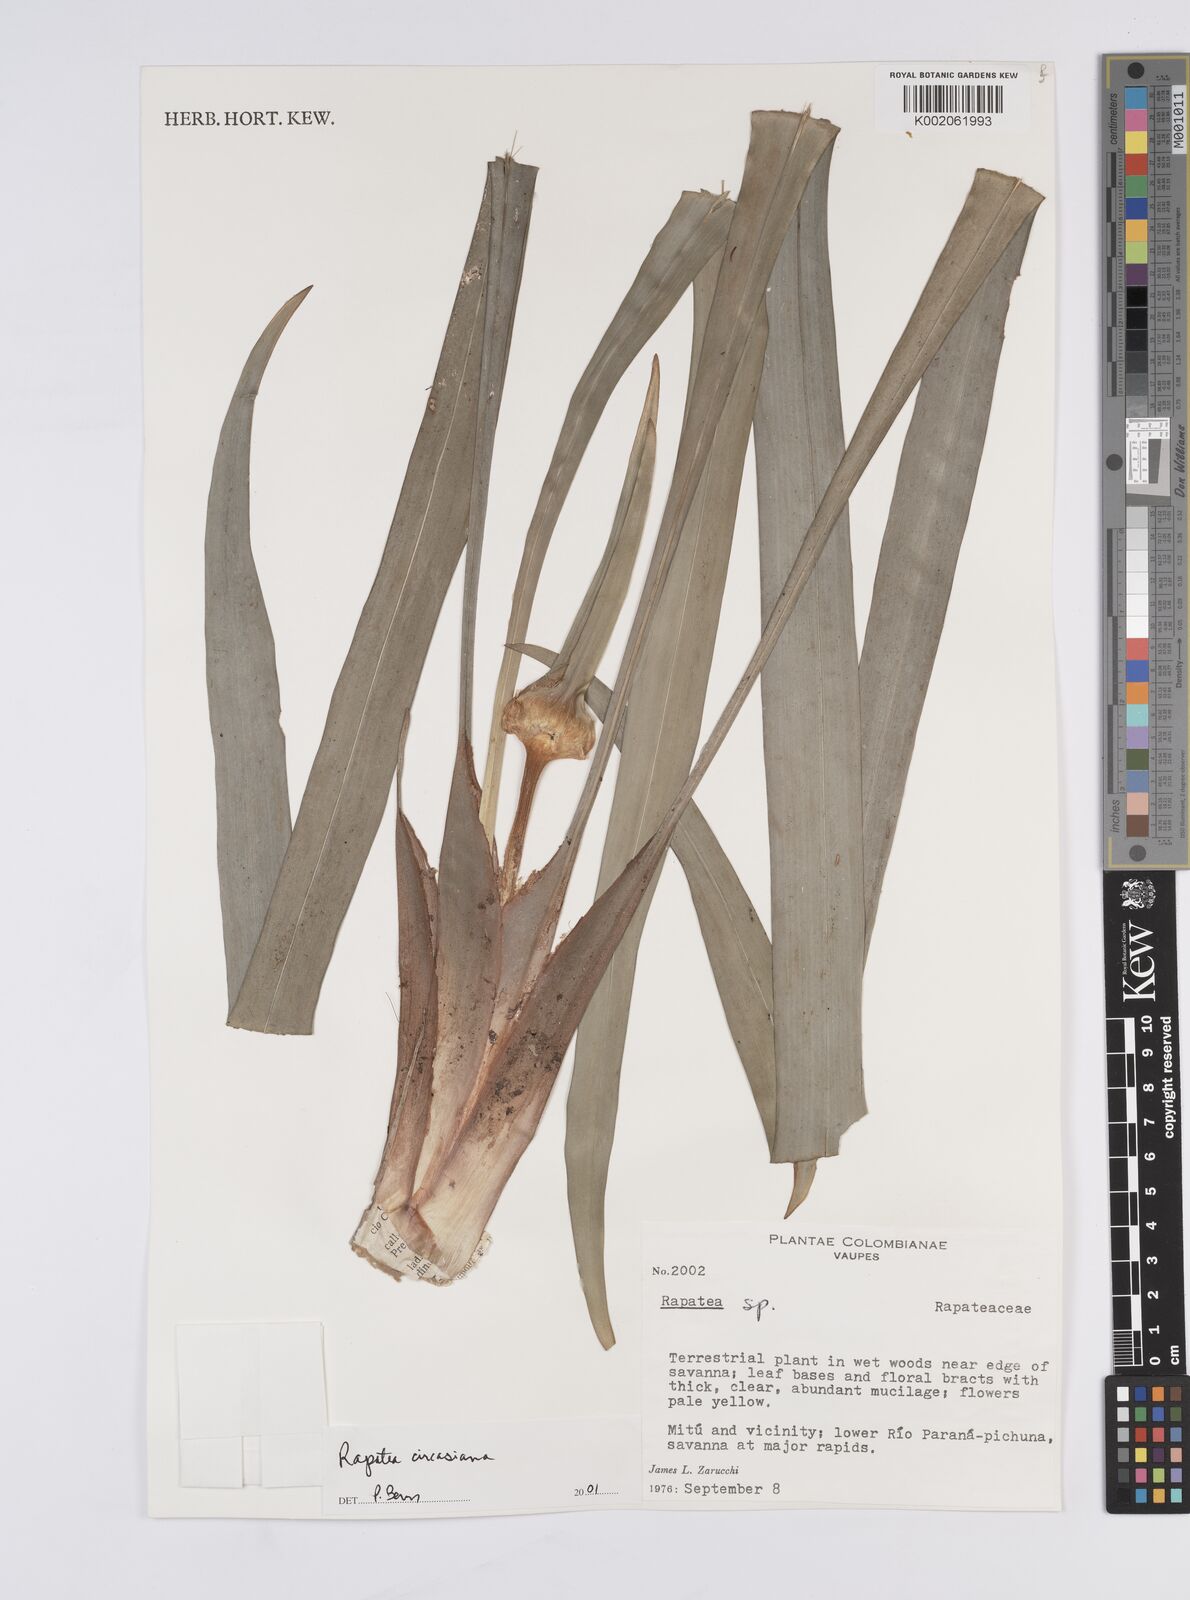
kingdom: Plantae
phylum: Tracheophyta
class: Liliopsida
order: Poales
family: Rapateaceae
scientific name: Rapateaceae
